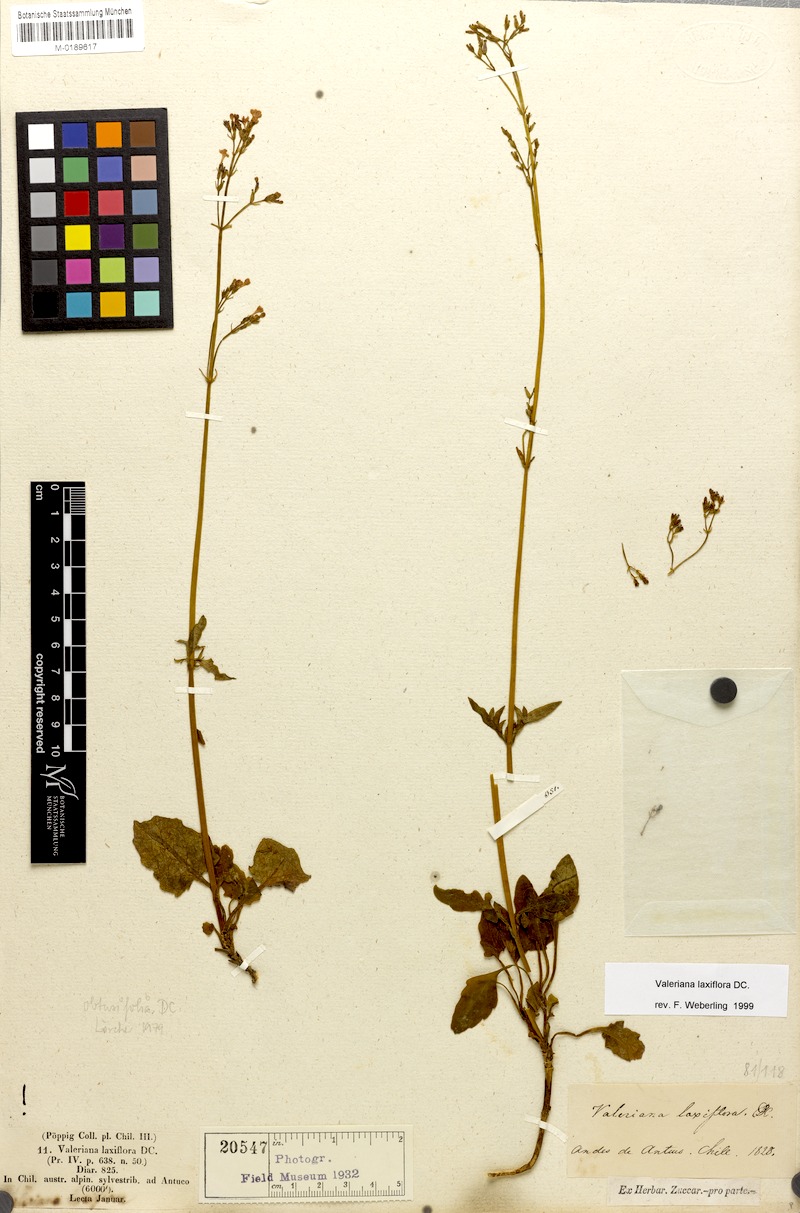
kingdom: Plantae
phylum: Tracheophyta
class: Magnoliopsida
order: Dipsacales
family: Caprifoliaceae
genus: Valeriana
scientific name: Valeriana laxiflora
